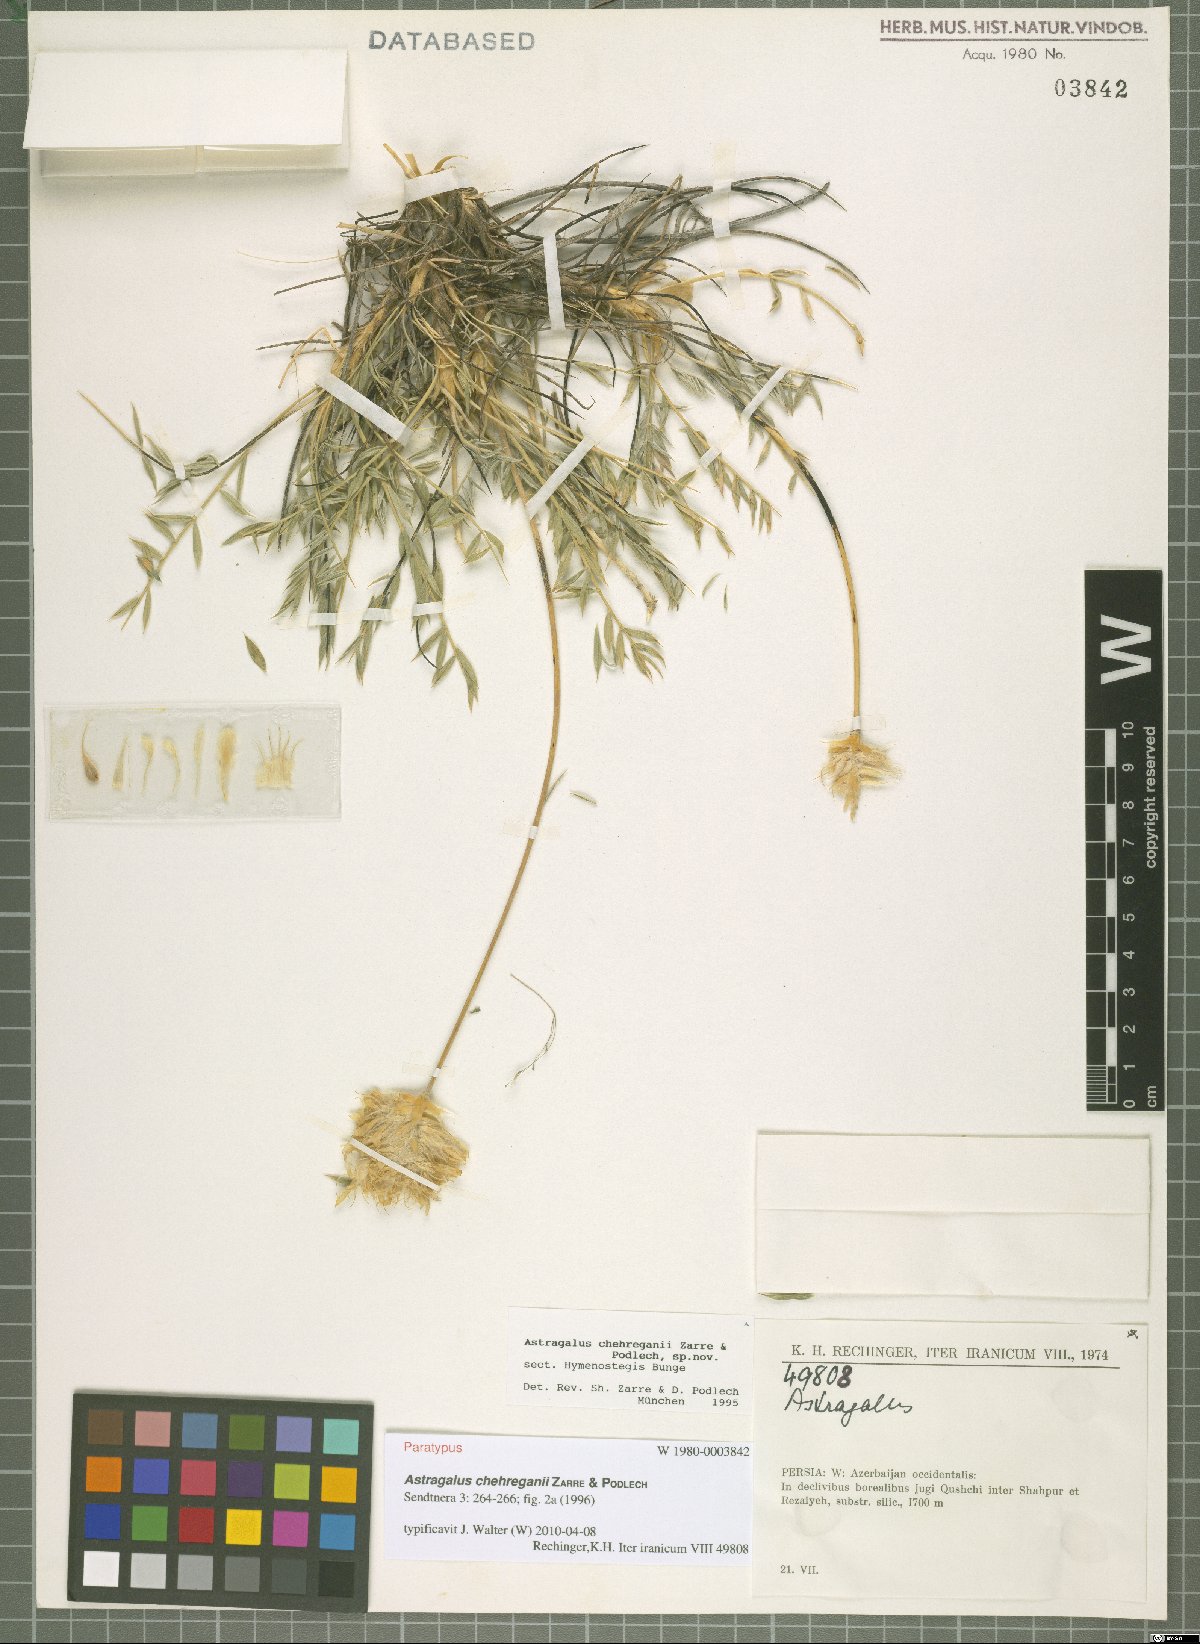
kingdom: Plantae
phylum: Tracheophyta
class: Magnoliopsida
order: Fabales
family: Fabaceae
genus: Astragalus
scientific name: Astragalus chehreganii
